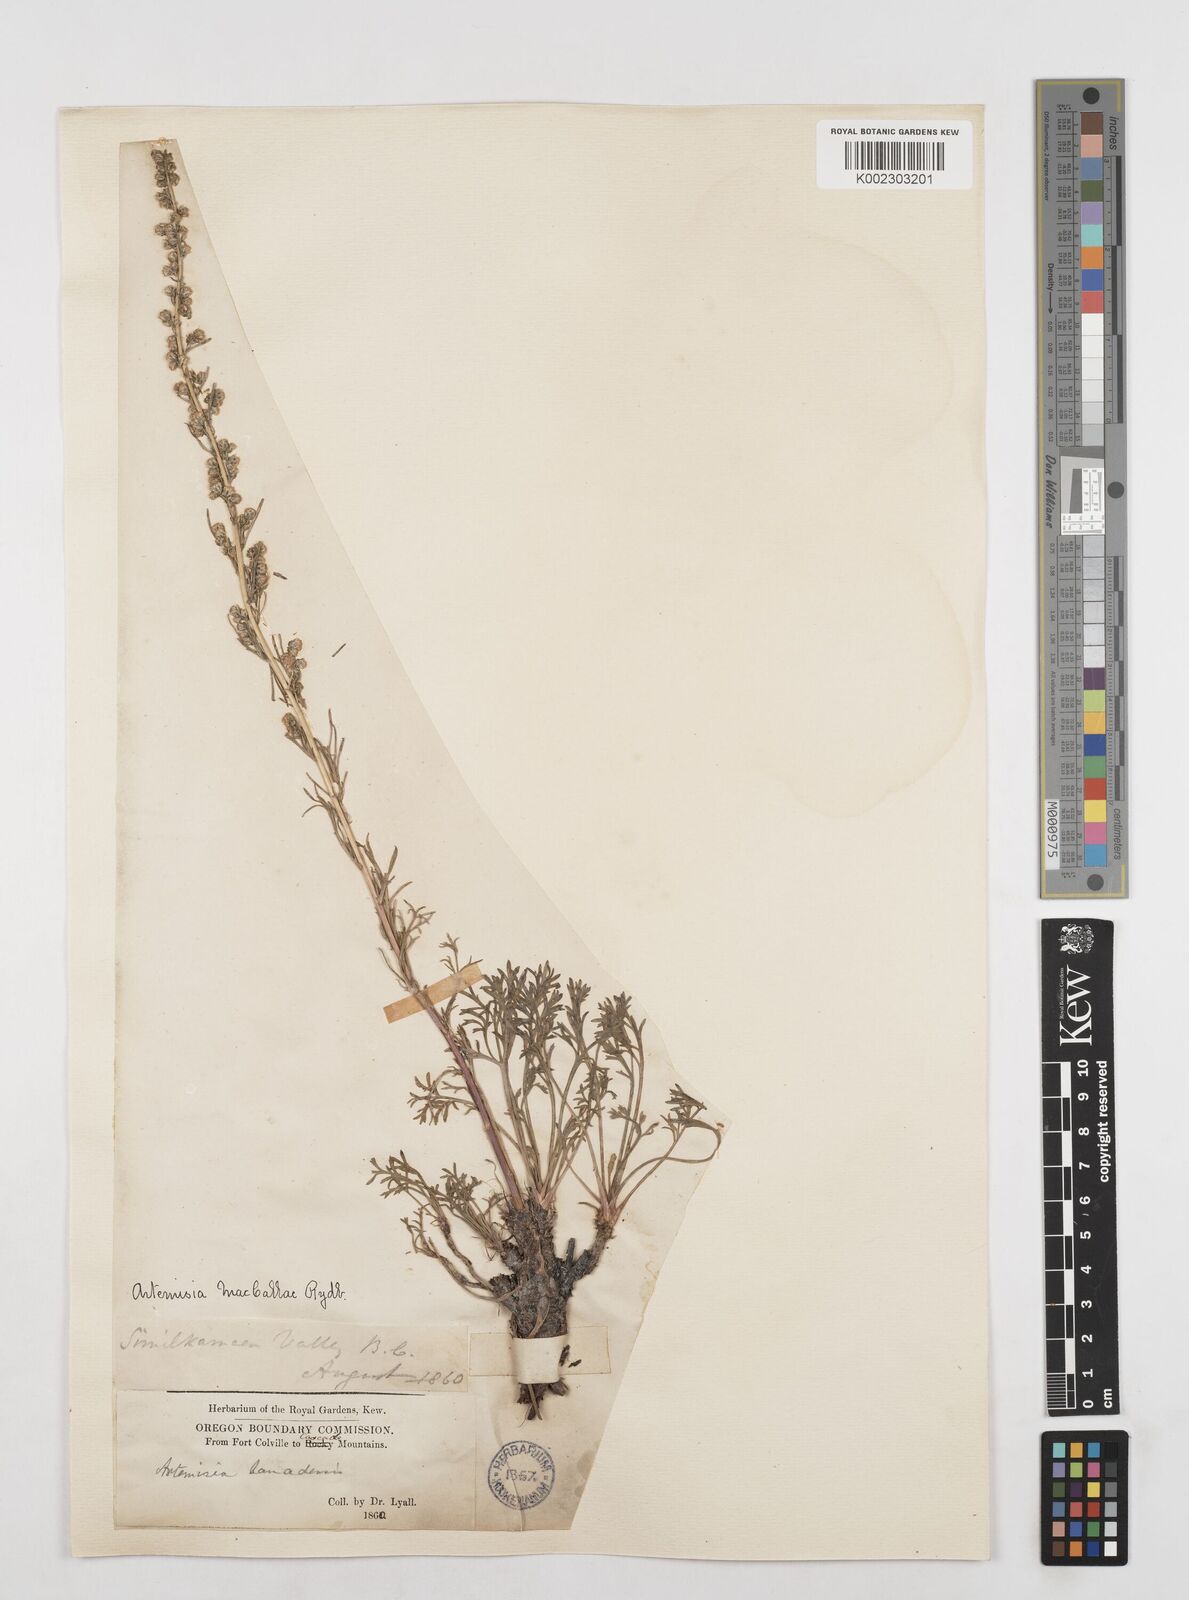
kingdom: Plantae
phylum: Tracheophyta
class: Magnoliopsida
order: Asterales
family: Asteraceae
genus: Artemisia
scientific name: Artemisia campestris
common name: Field wormwood
